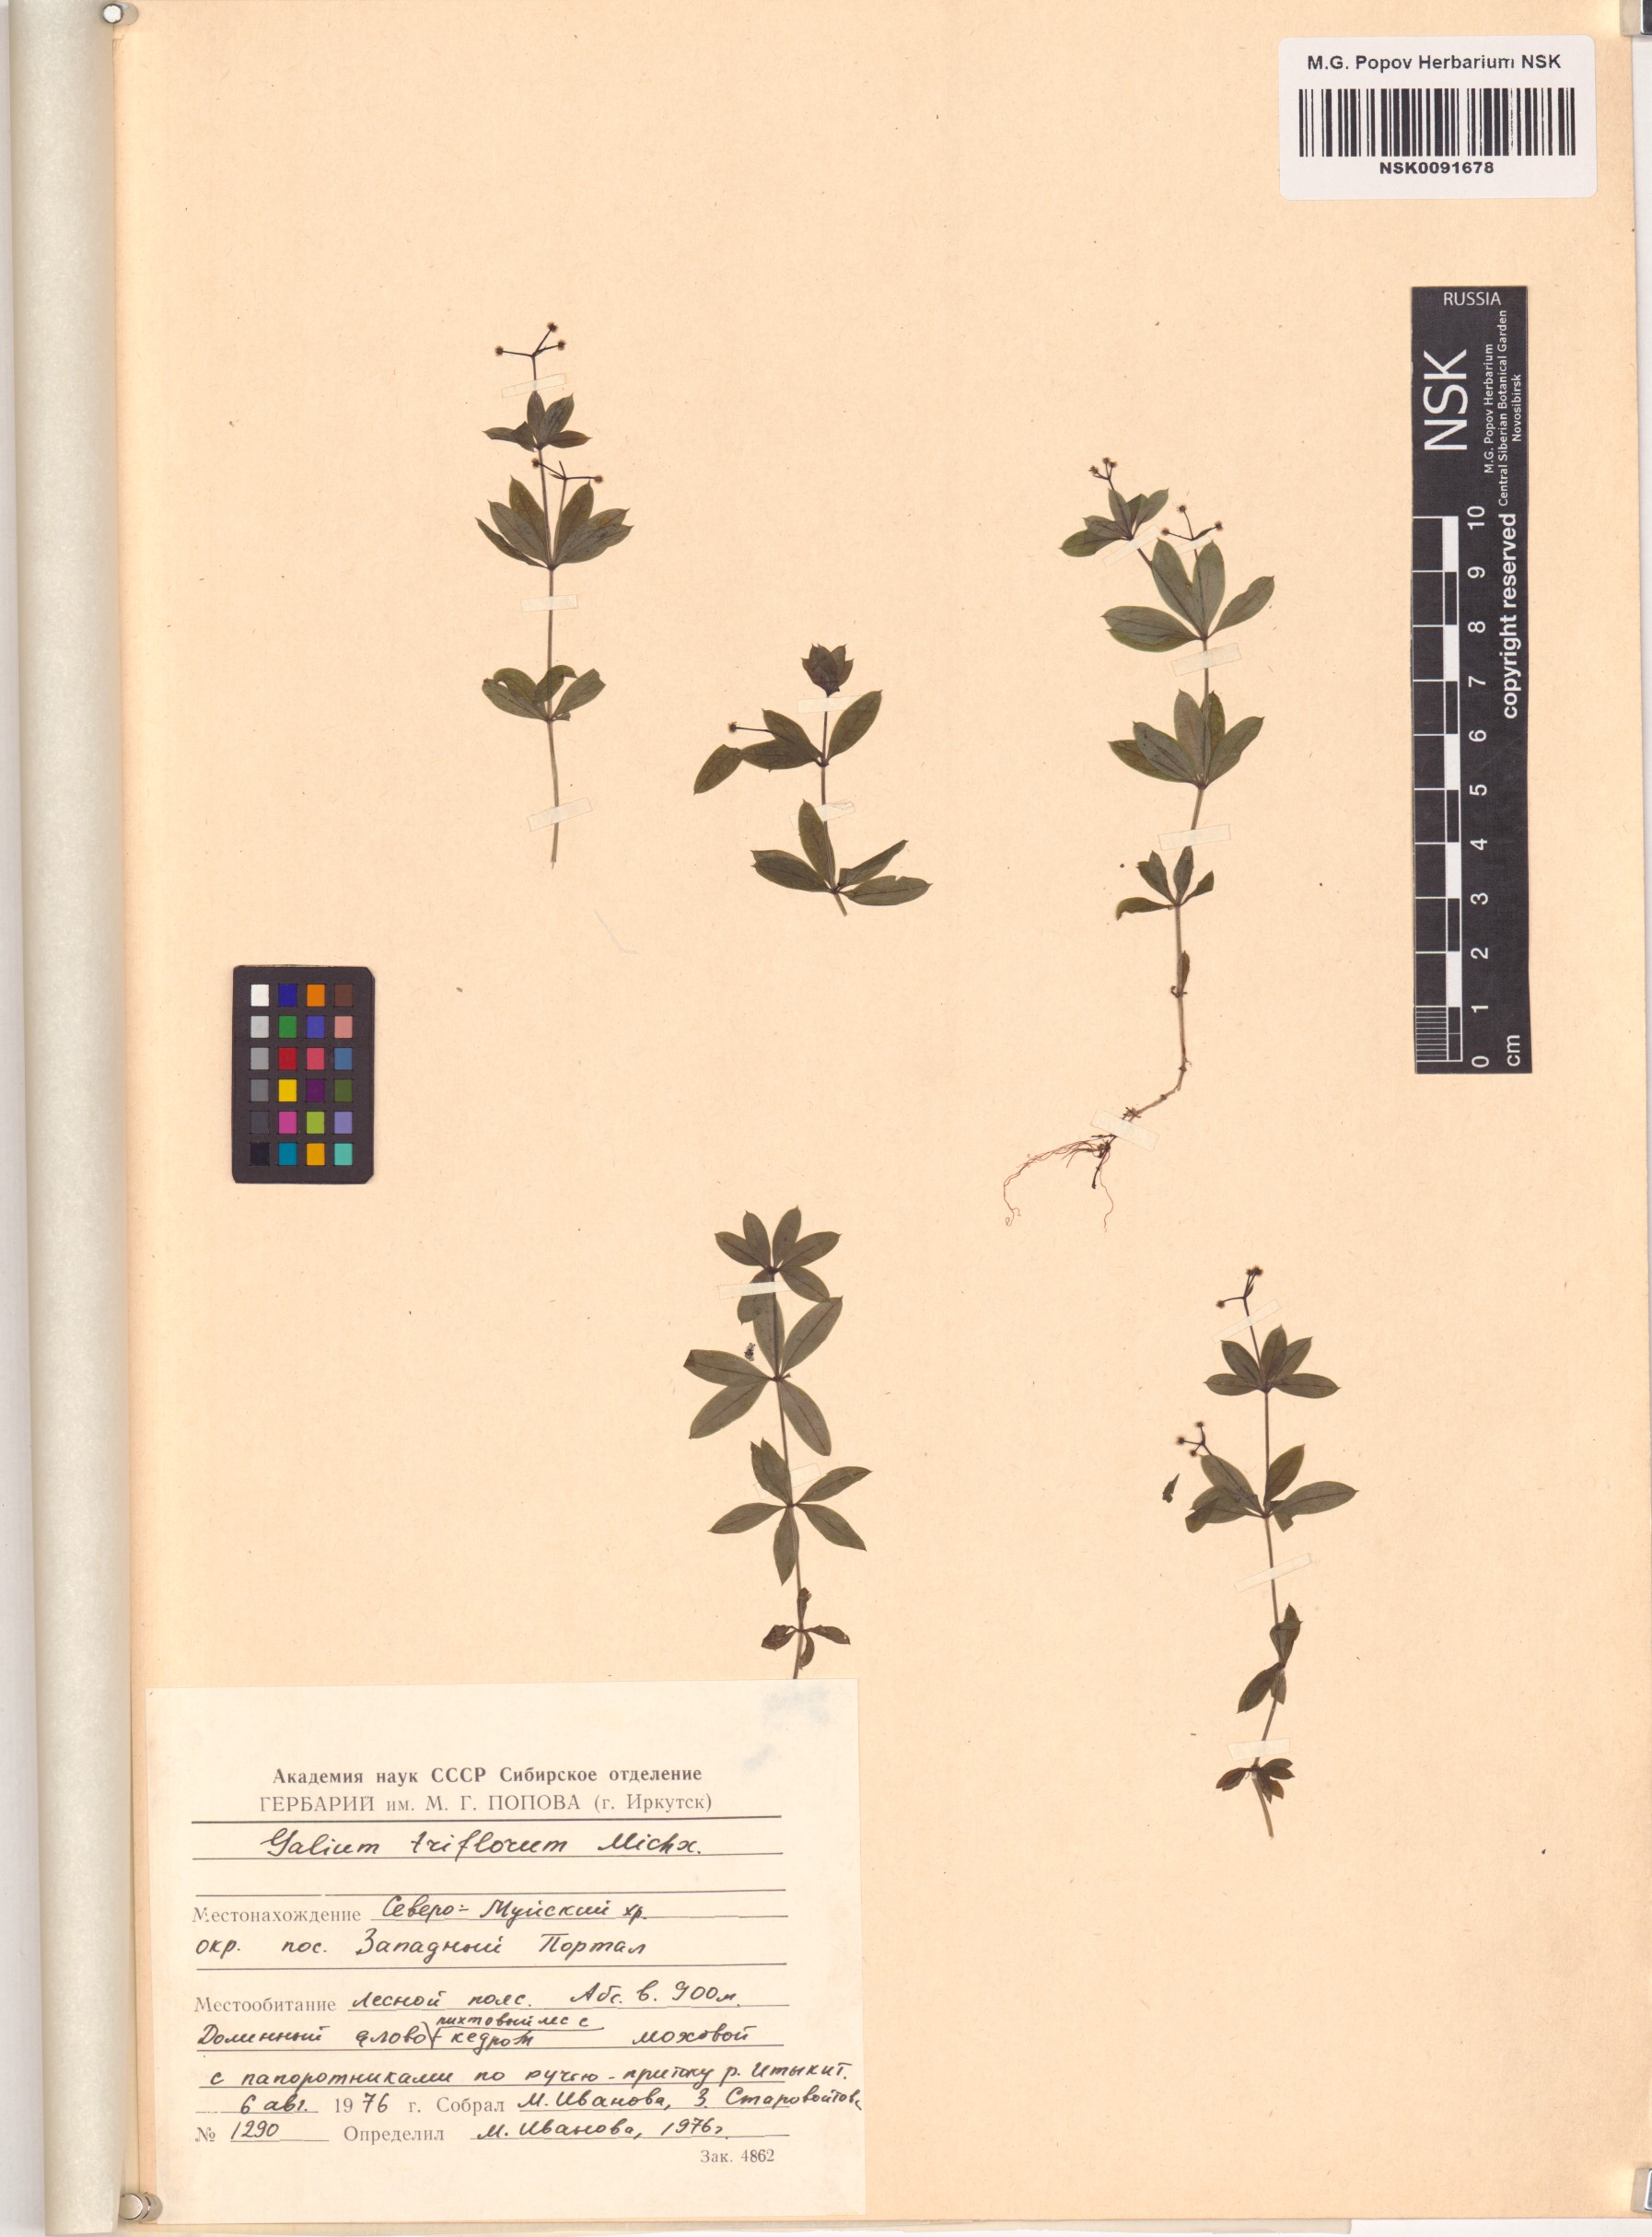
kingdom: Plantae
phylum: Tracheophyta
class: Magnoliopsida
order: Gentianales
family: Rubiaceae
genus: Galium
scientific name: Galium triflorum
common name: Fragrant bedstraw
